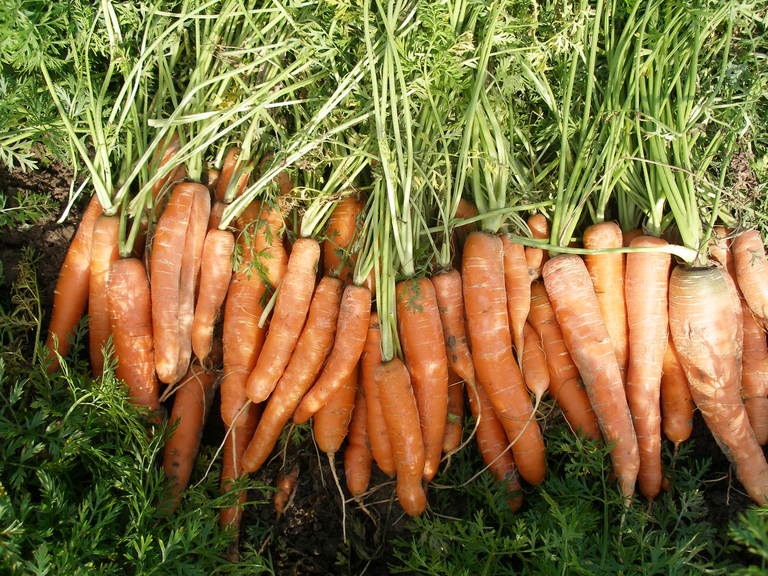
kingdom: Plantae
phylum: Tracheophyta
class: Magnoliopsida
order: Apiales
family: Apiaceae
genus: Daucus
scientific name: Daucus carota
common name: Wild carrot
